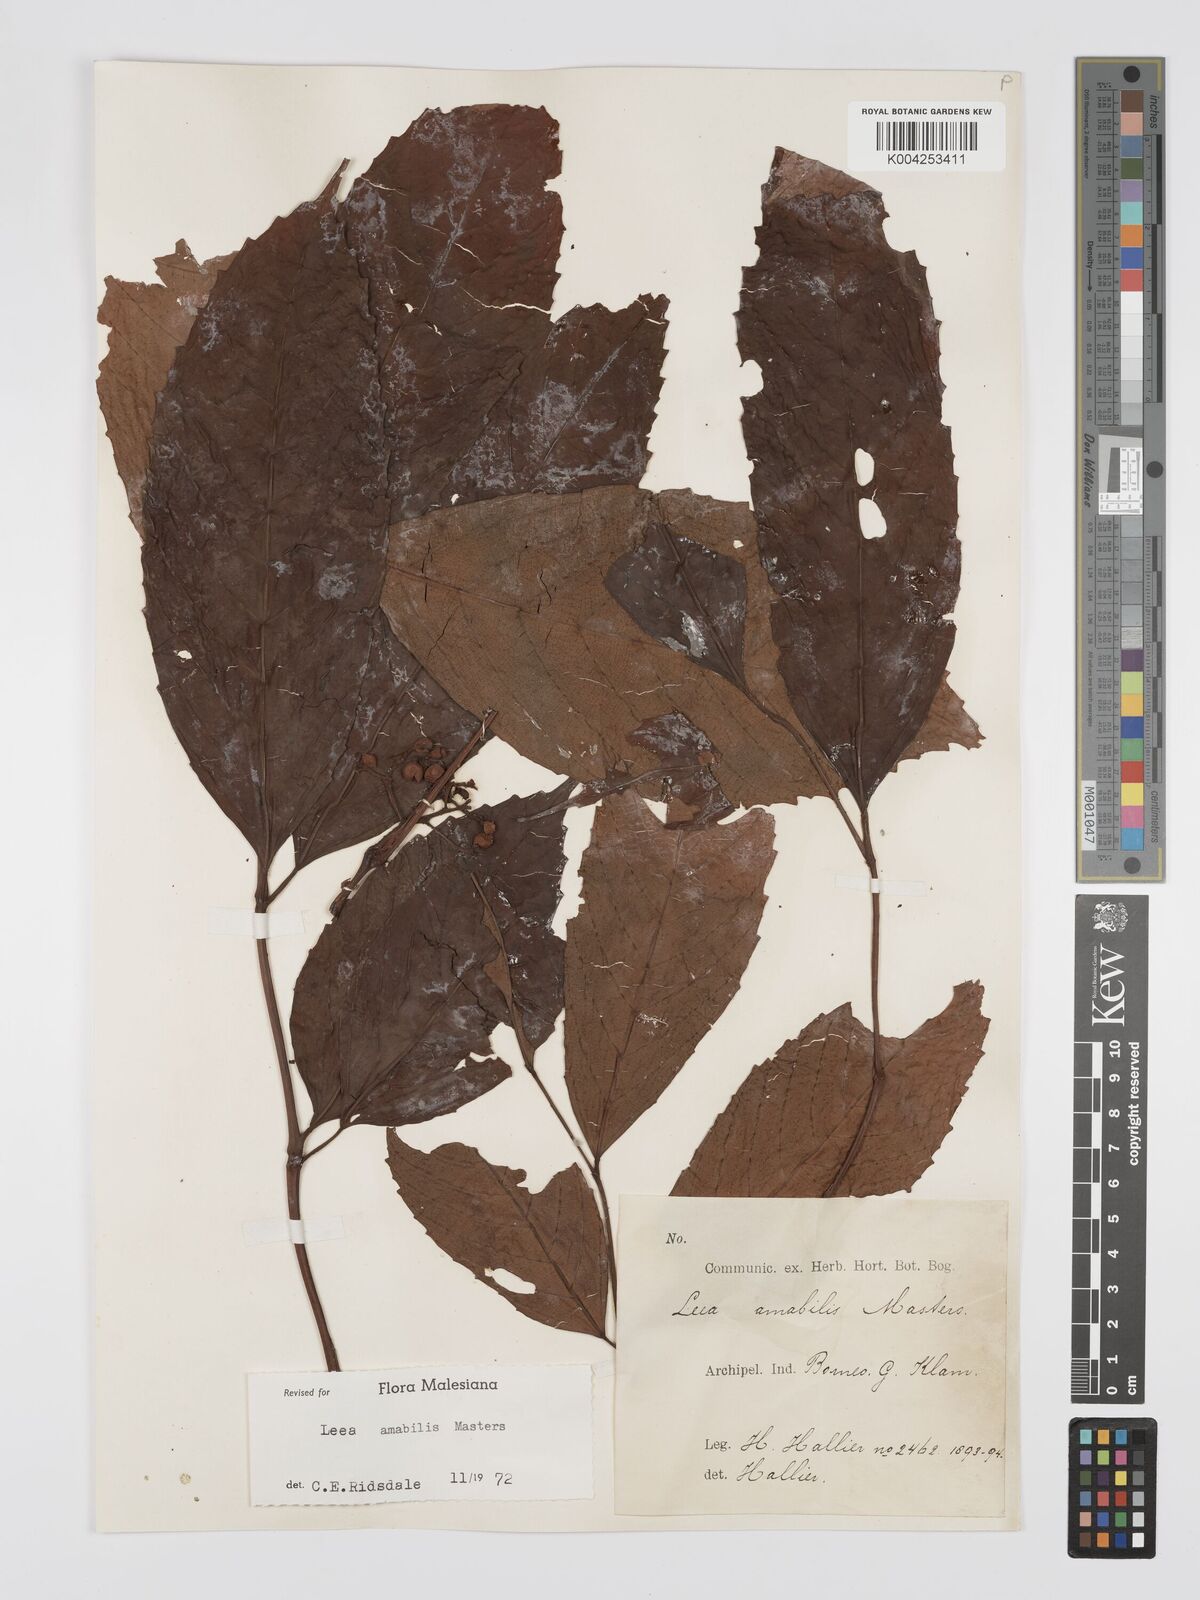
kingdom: Plantae
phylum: Tracheophyta
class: Magnoliopsida
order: Vitales
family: Vitaceae
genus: Leea
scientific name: Leea amabilis
